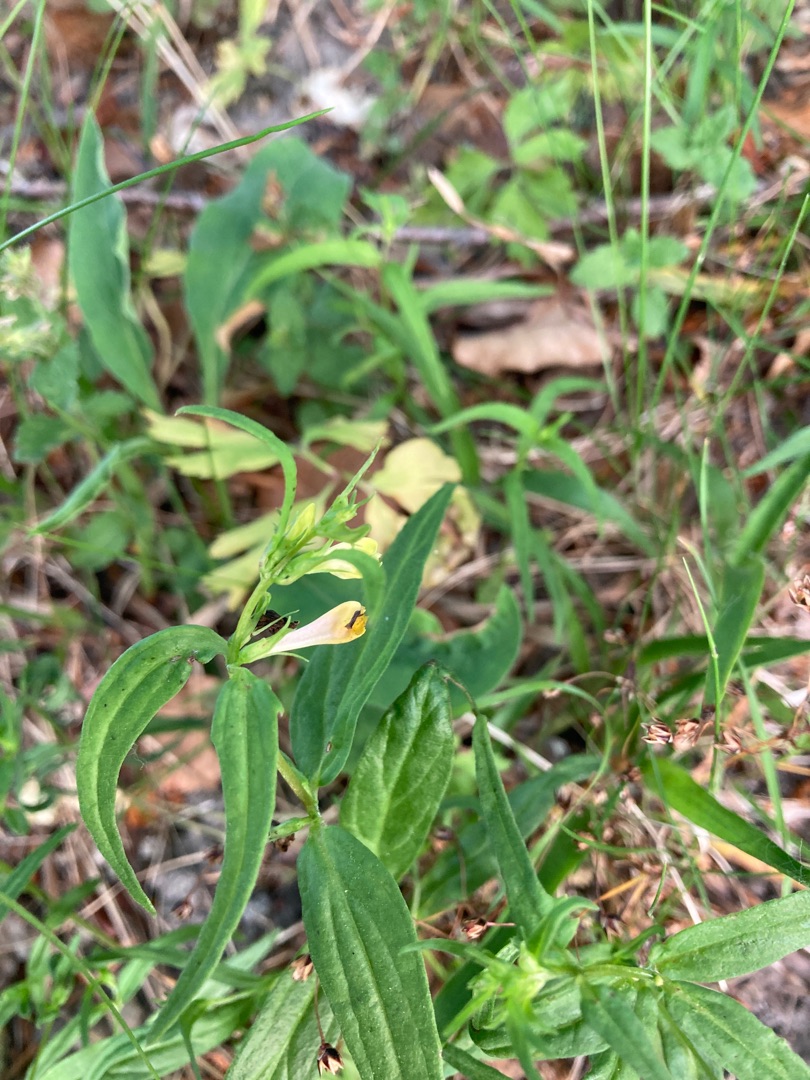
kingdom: Plantae
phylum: Tracheophyta
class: Magnoliopsida
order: Lamiales
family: Orobanchaceae
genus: Melampyrum
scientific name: Melampyrum pratense
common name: Almindelig kohvede
